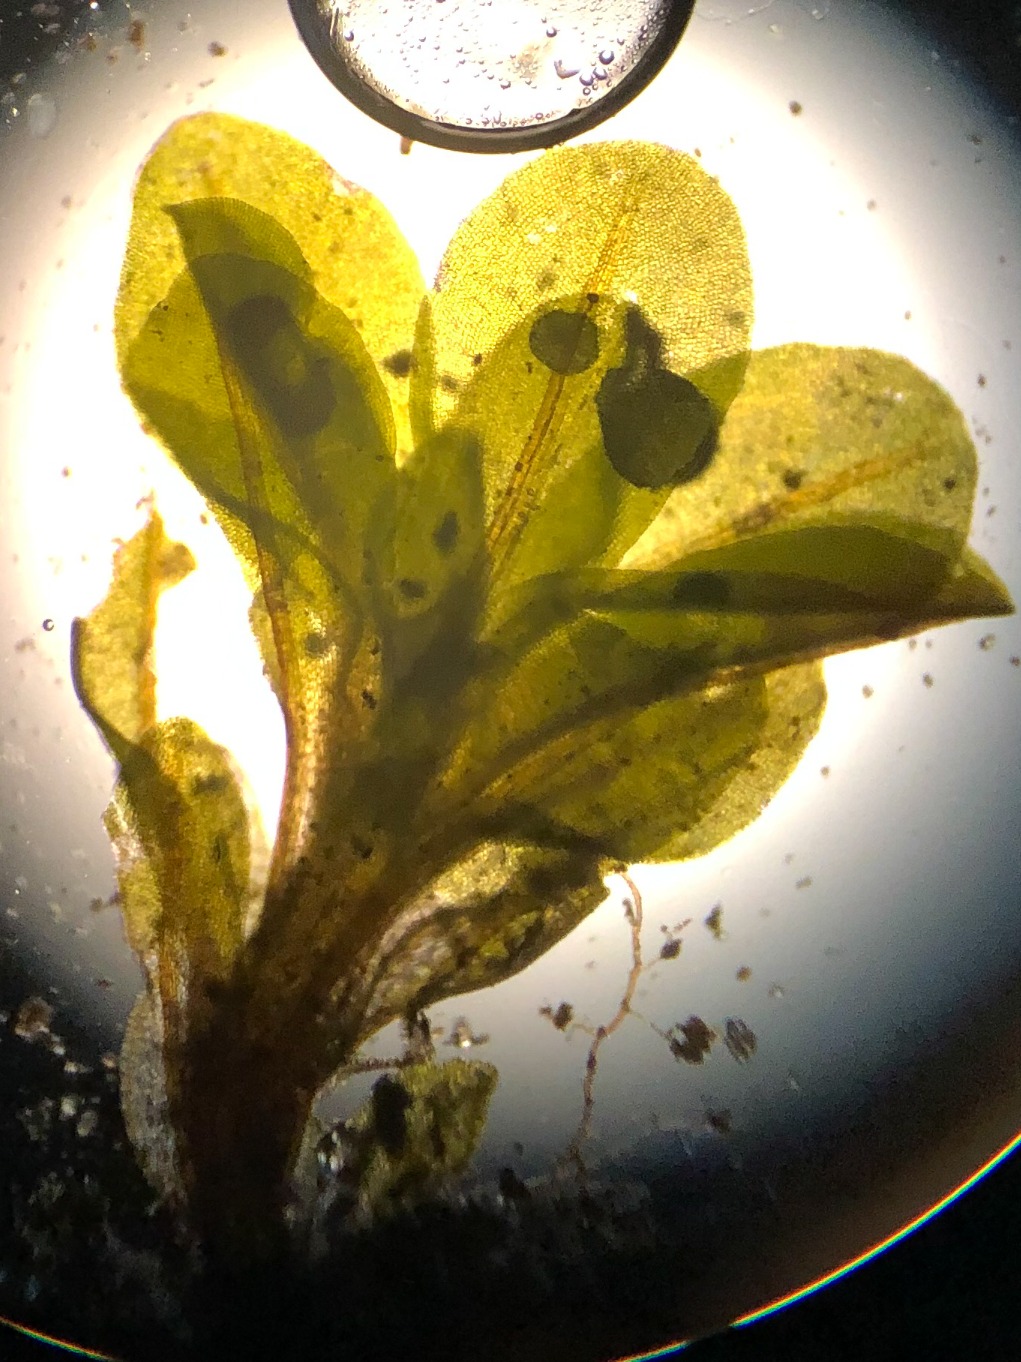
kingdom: Plantae
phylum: Bryophyta
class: Bryopsida
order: Pottiales
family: Pottiaceae
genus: Syntrichia
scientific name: Syntrichia latifolia
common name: Butbladet hårstjerne
